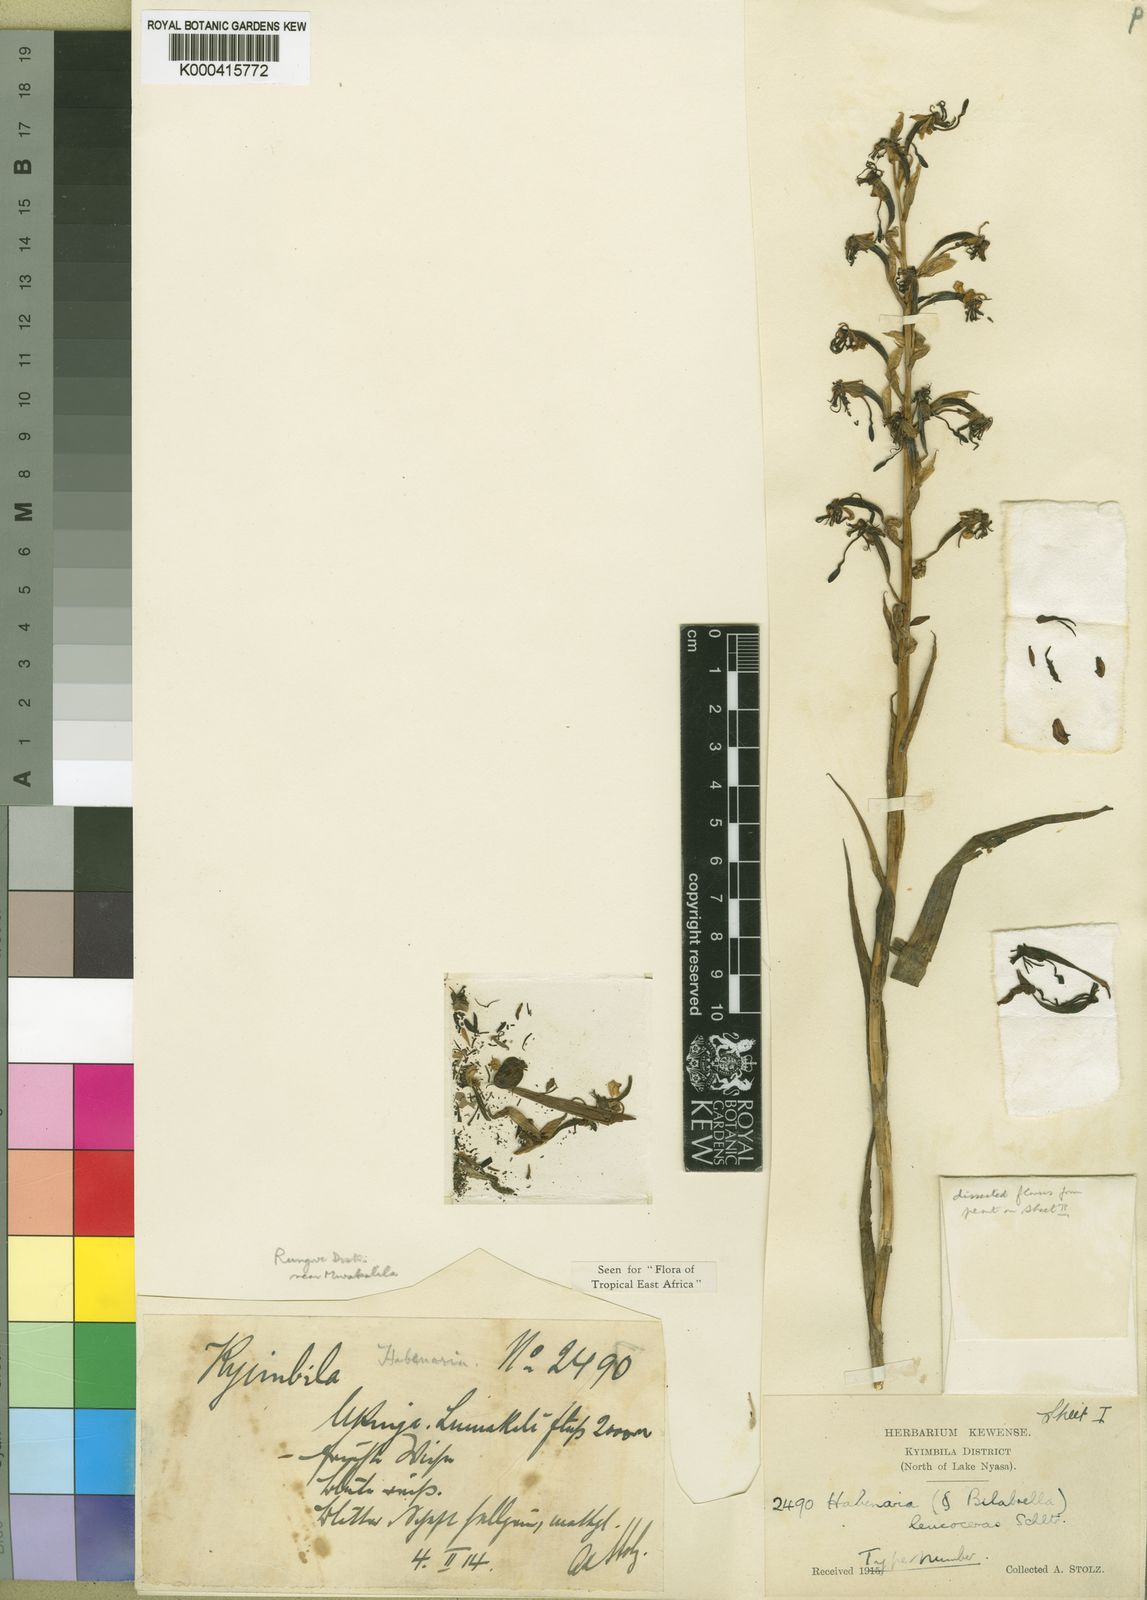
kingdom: Plantae
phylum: Tracheophyta
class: Liliopsida
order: Asparagales
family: Orchidaceae
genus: Habenaria
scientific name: Habenaria leucoceras
